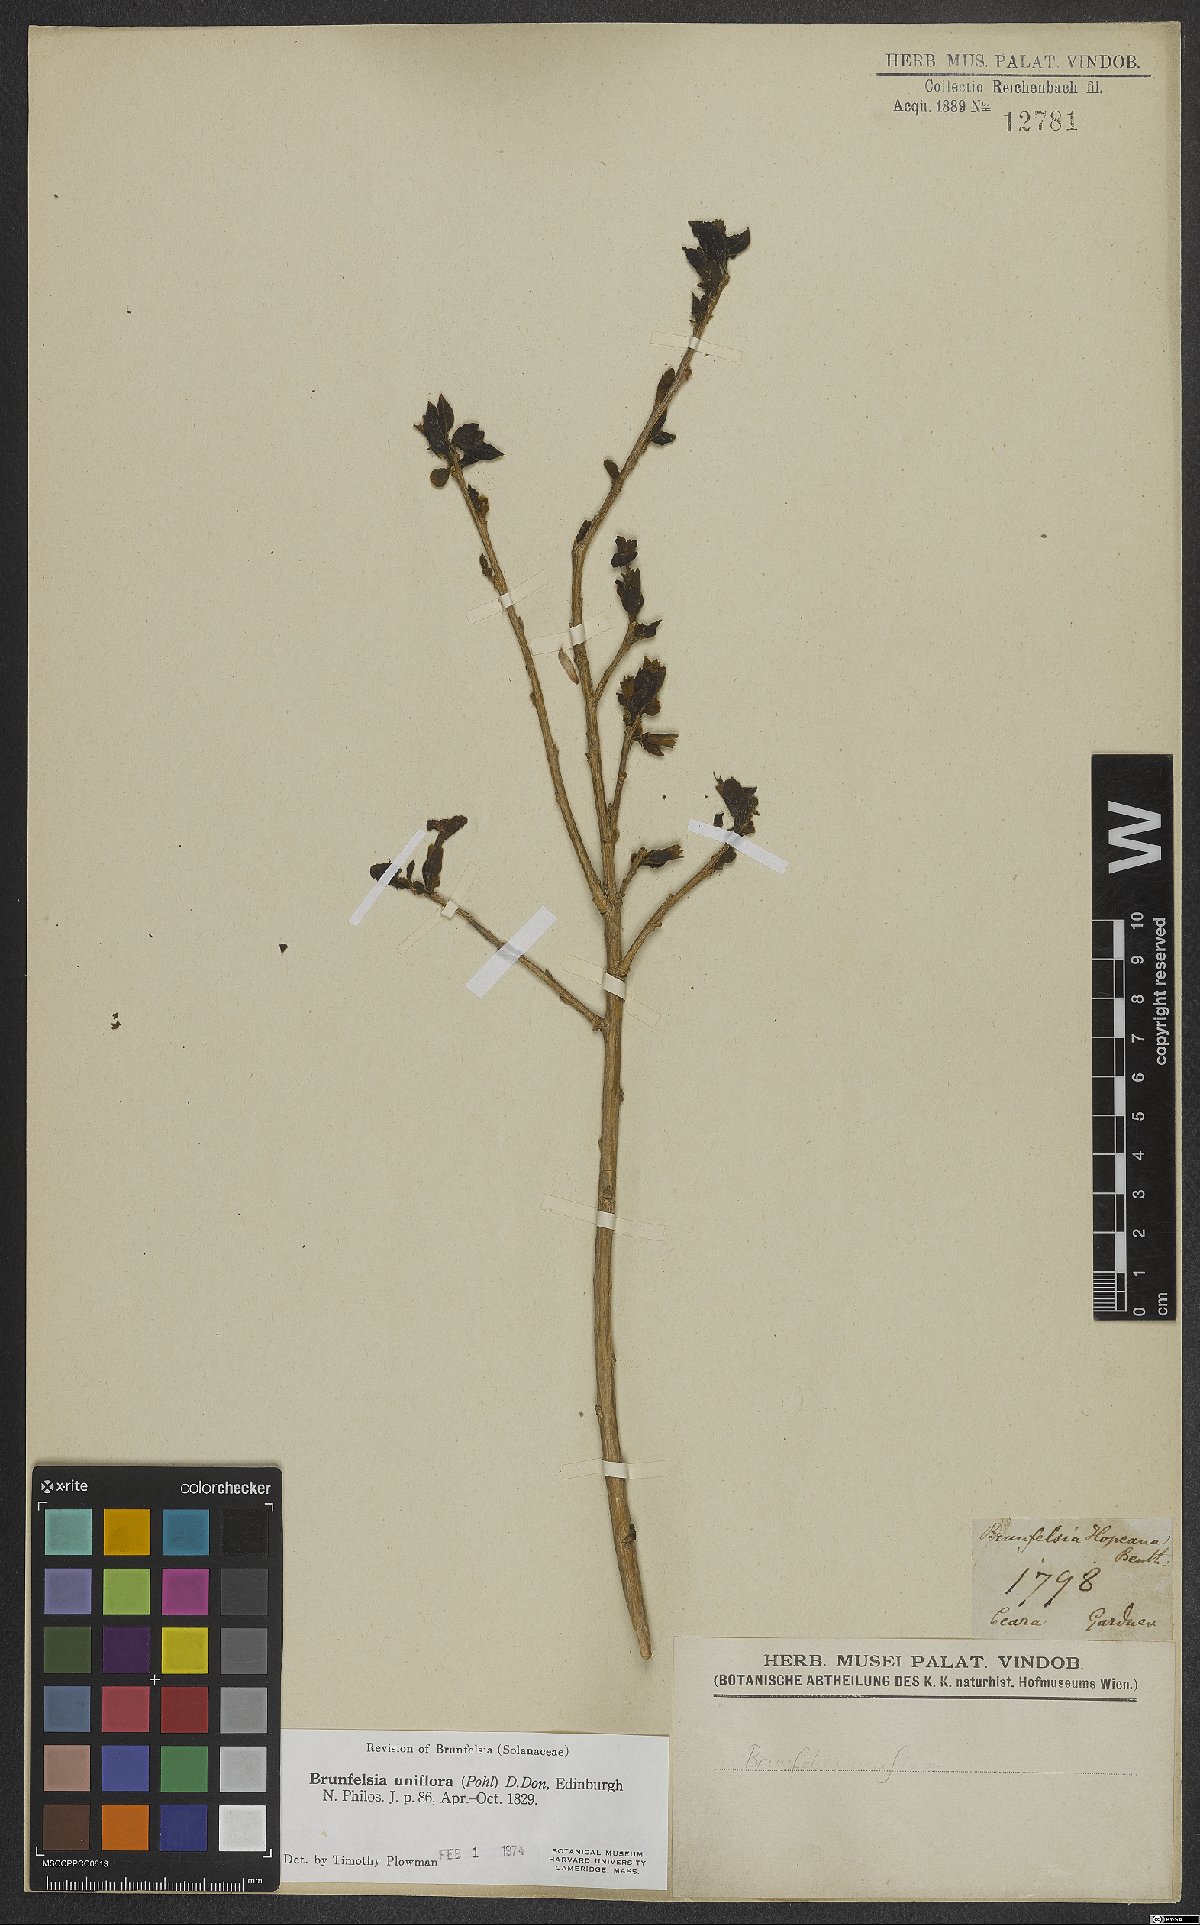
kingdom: Plantae
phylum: Tracheophyta
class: Magnoliopsida
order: Solanales
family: Solanaceae
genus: Brunfelsia
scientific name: Brunfelsia uniflora
